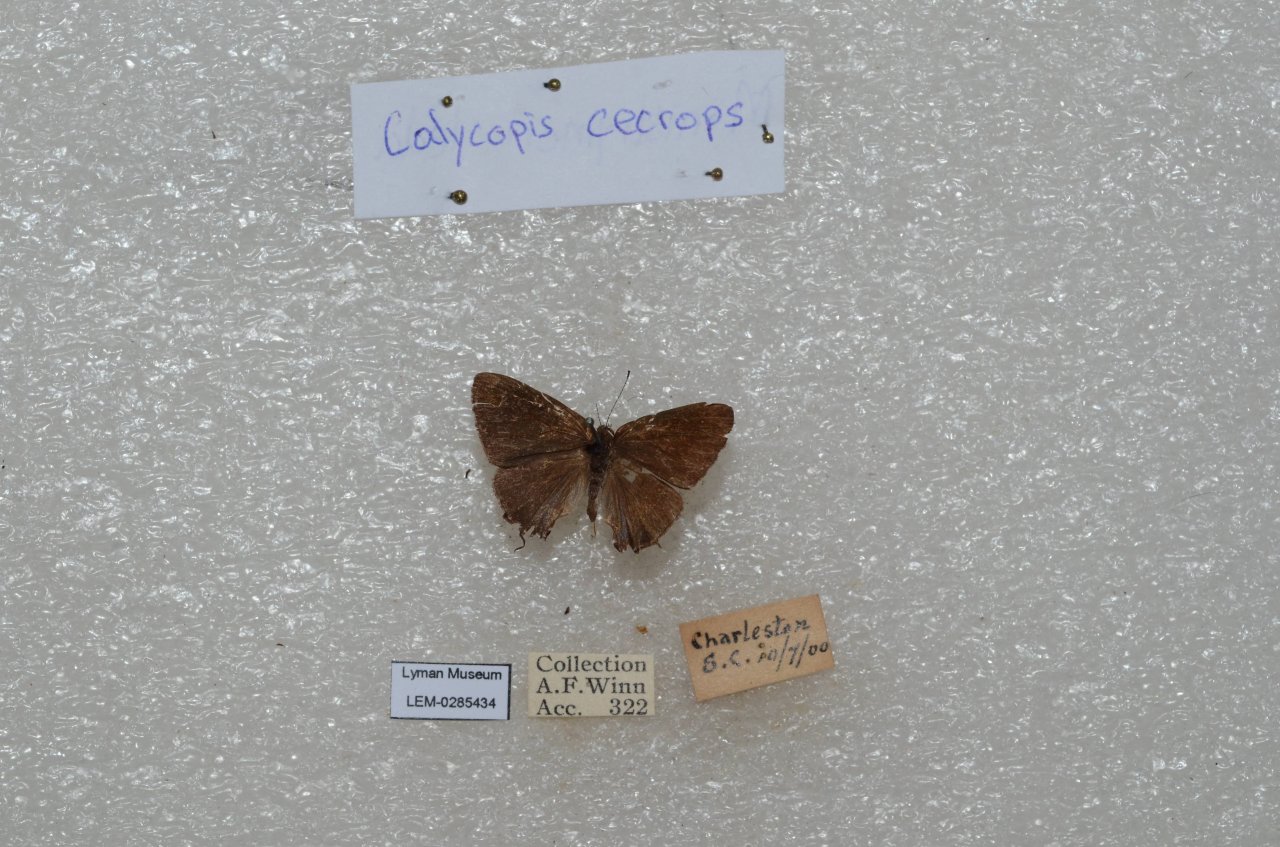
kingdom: Animalia
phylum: Arthropoda
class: Insecta
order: Lepidoptera
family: Lycaenidae
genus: Calycopis
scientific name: Calycopis cecrops
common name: Red-banded Hairstreak
